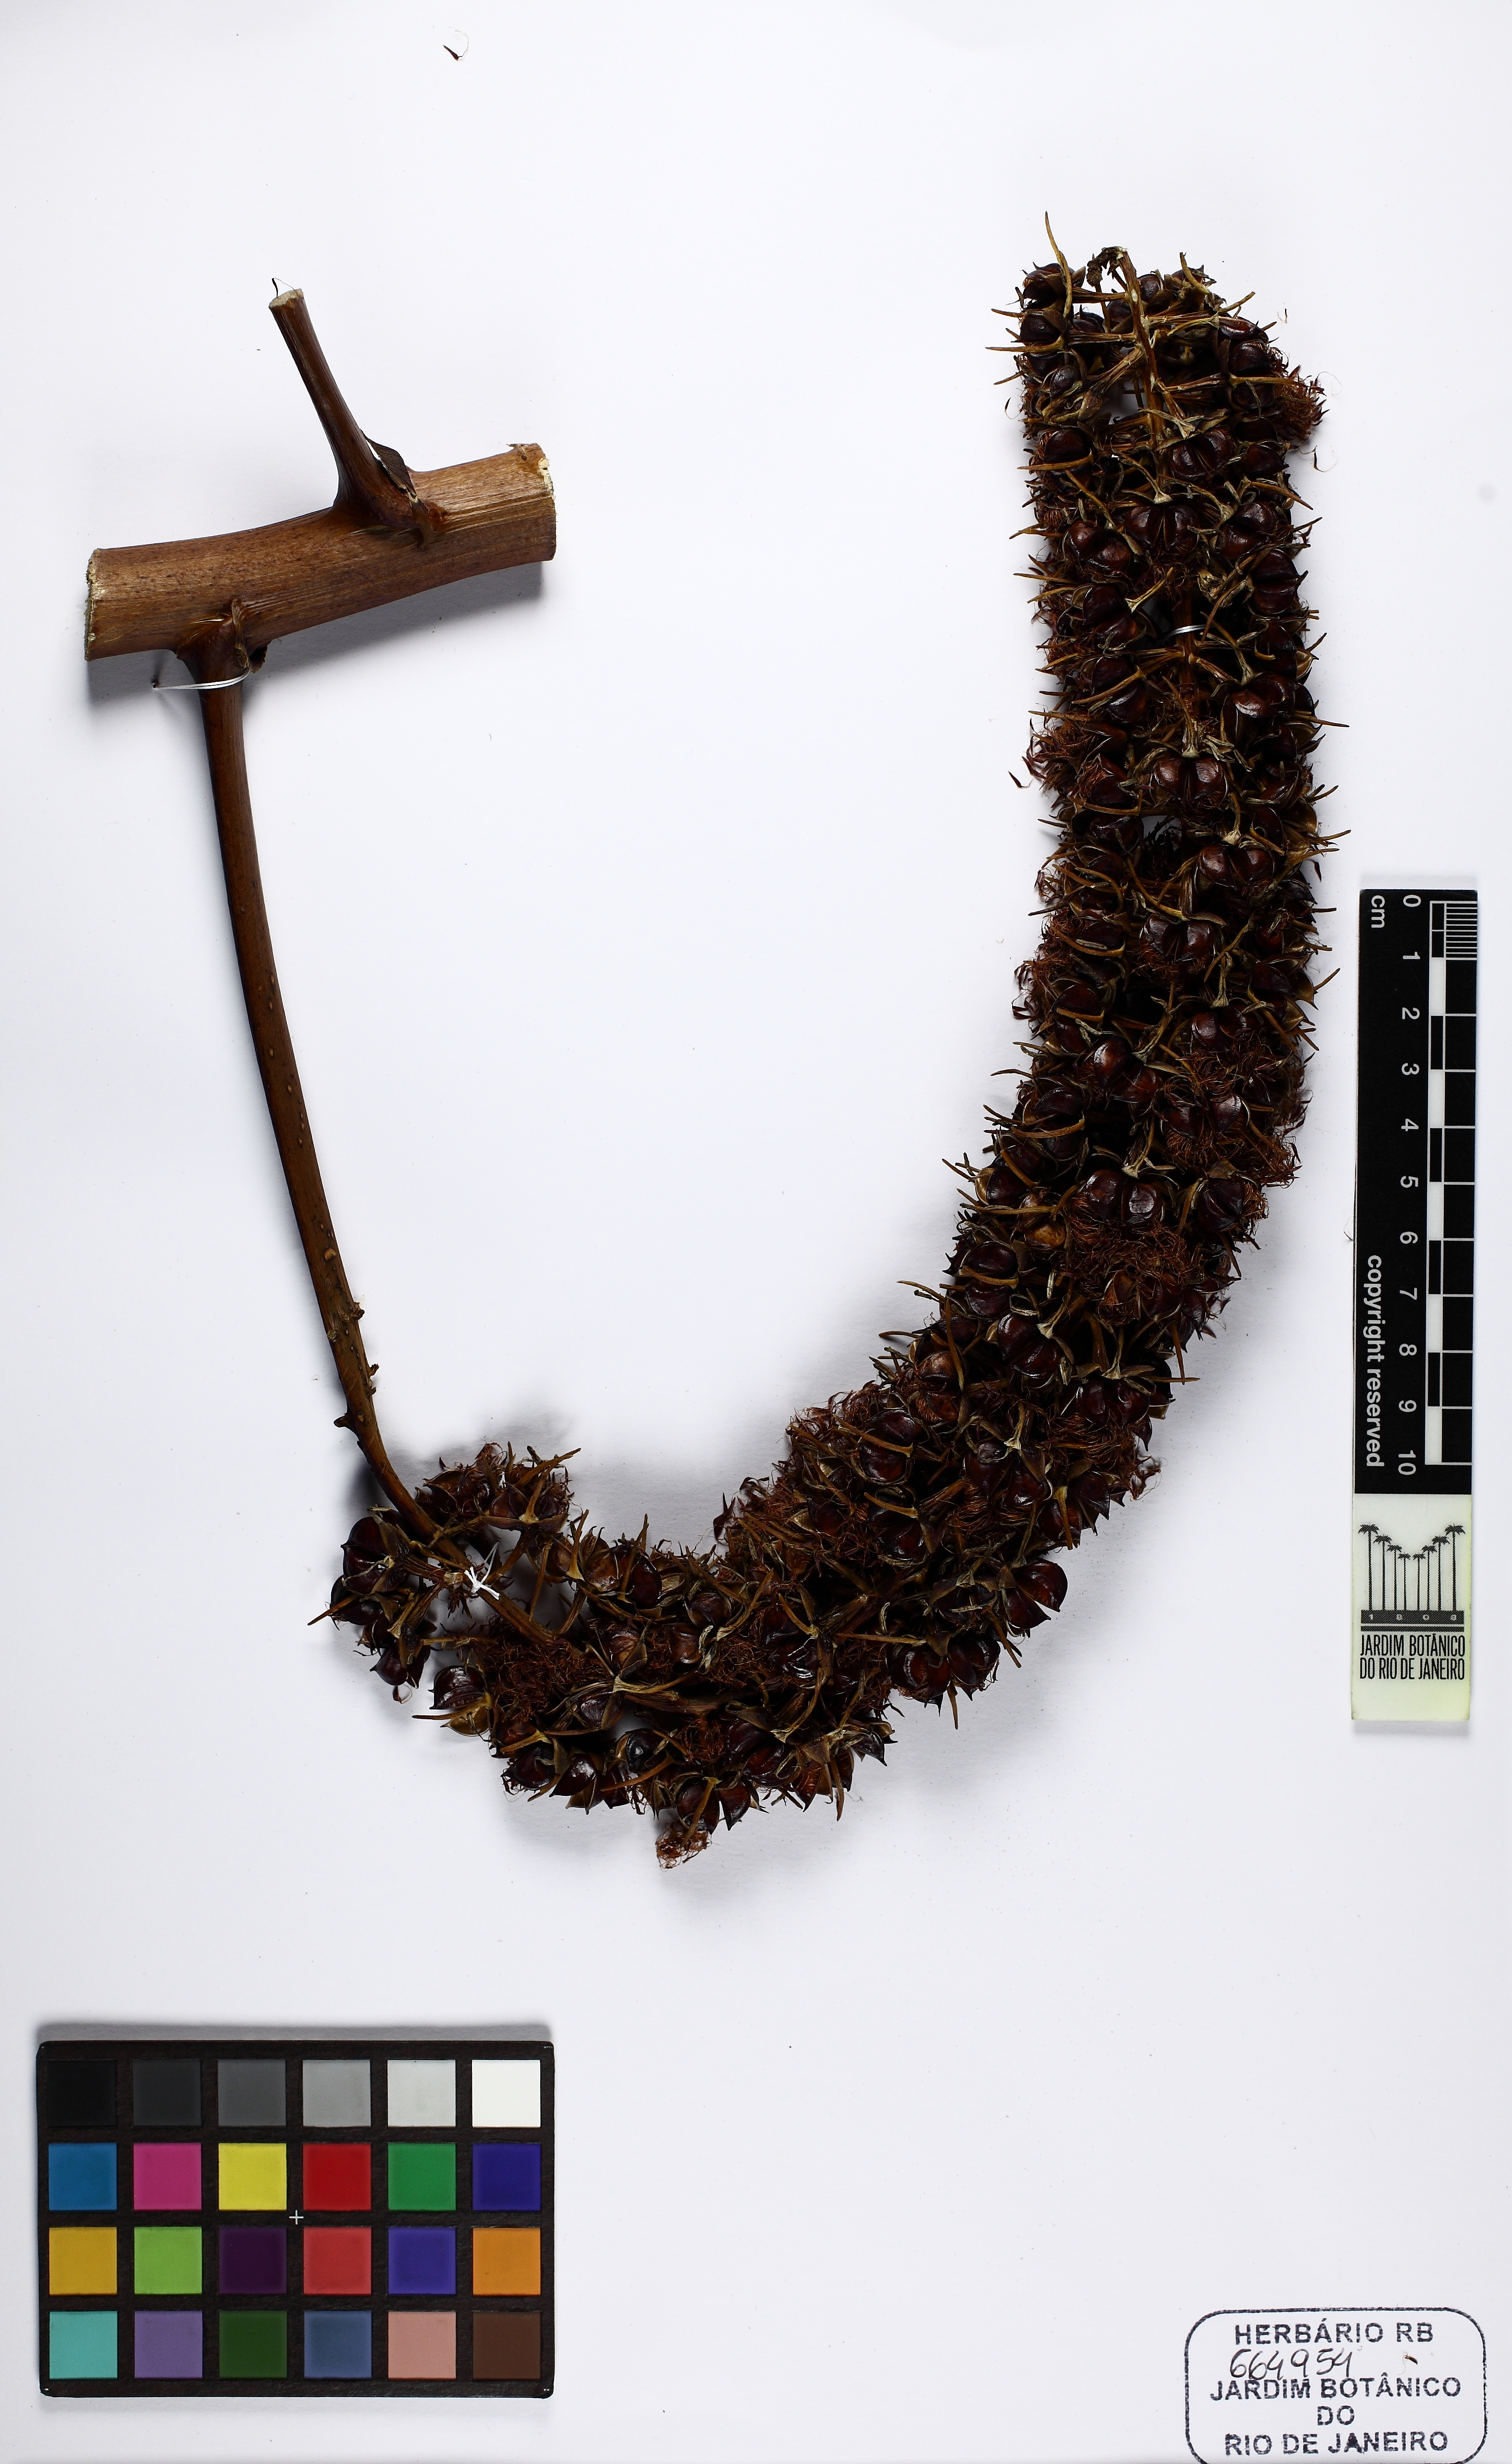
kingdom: Plantae
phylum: Tracheophyta
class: Liliopsida
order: Poales
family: Bromeliaceae
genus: Encholirium
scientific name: Encholirium horridum
